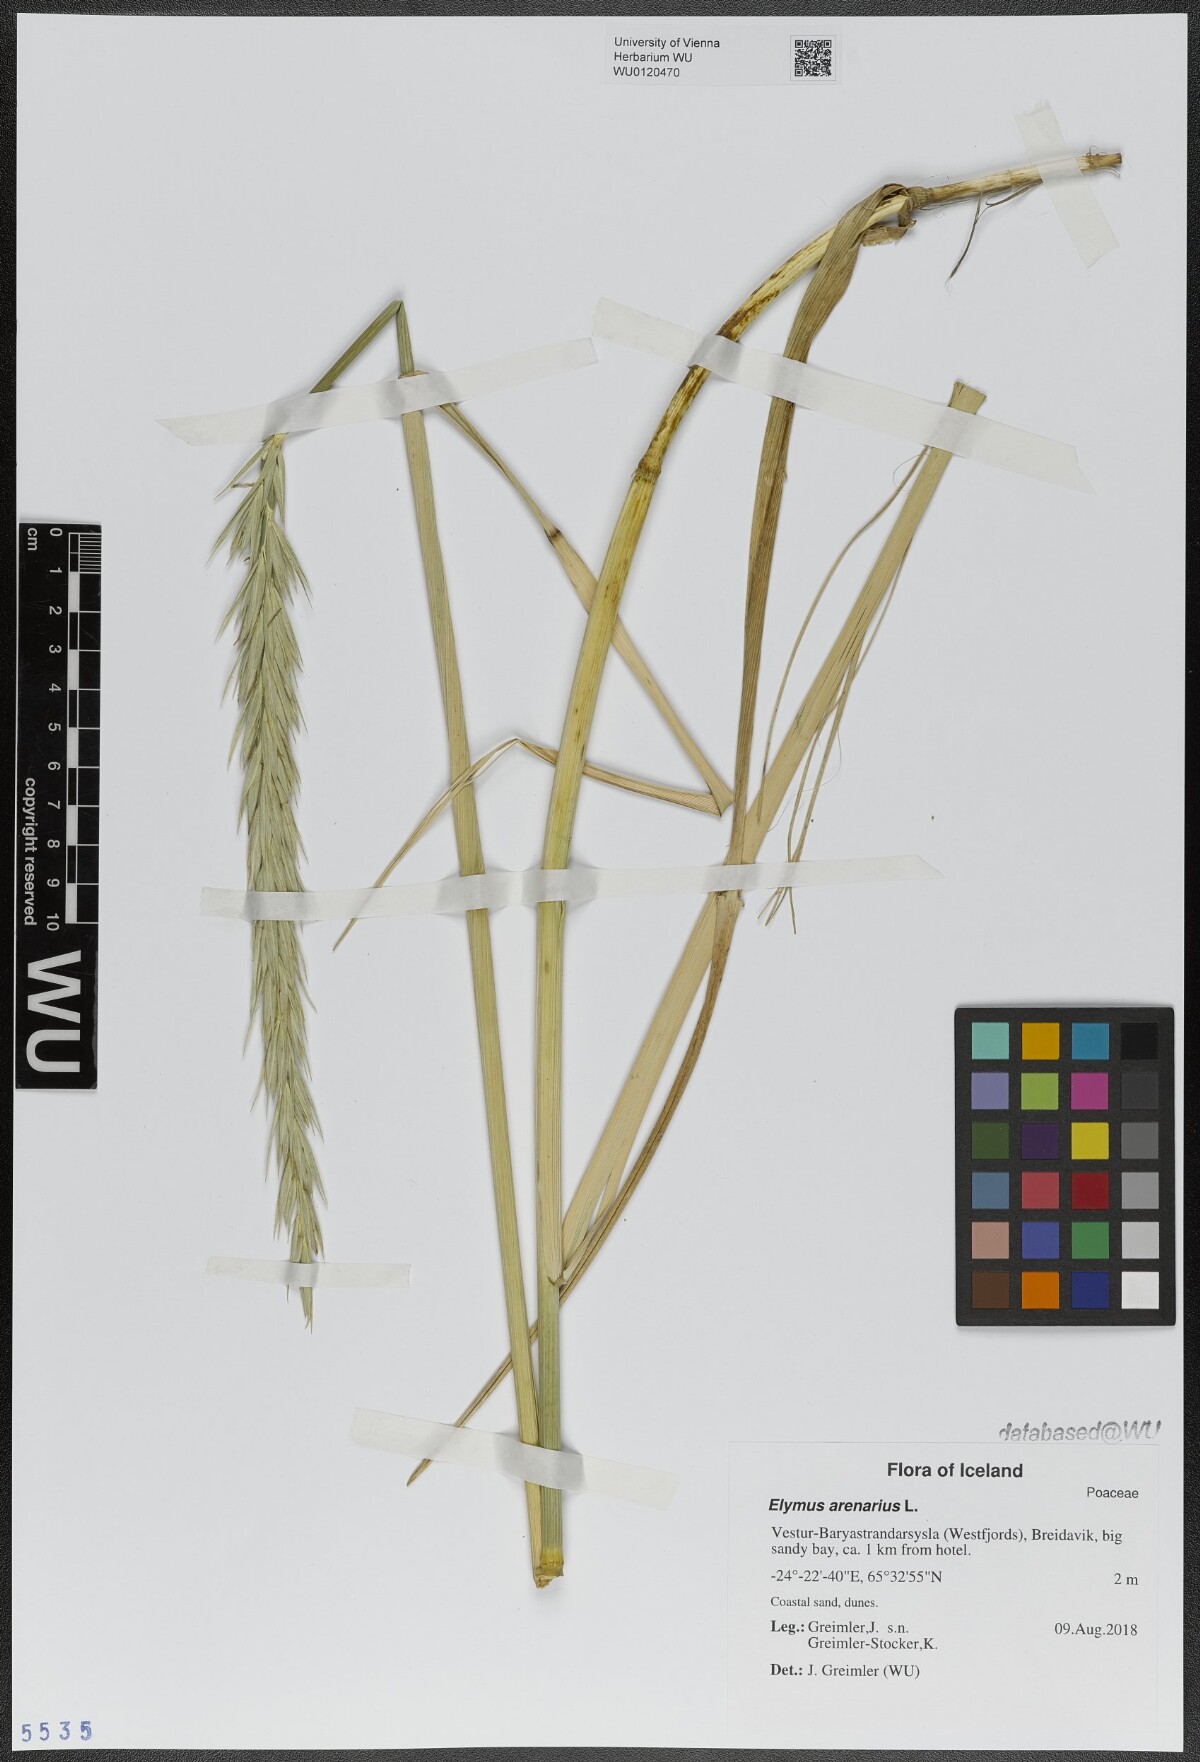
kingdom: Plantae
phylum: Tracheophyta
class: Liliopsida
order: Poales
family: Poaceae
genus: Leymus
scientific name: Leymus arenarius
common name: Lyme-grass
